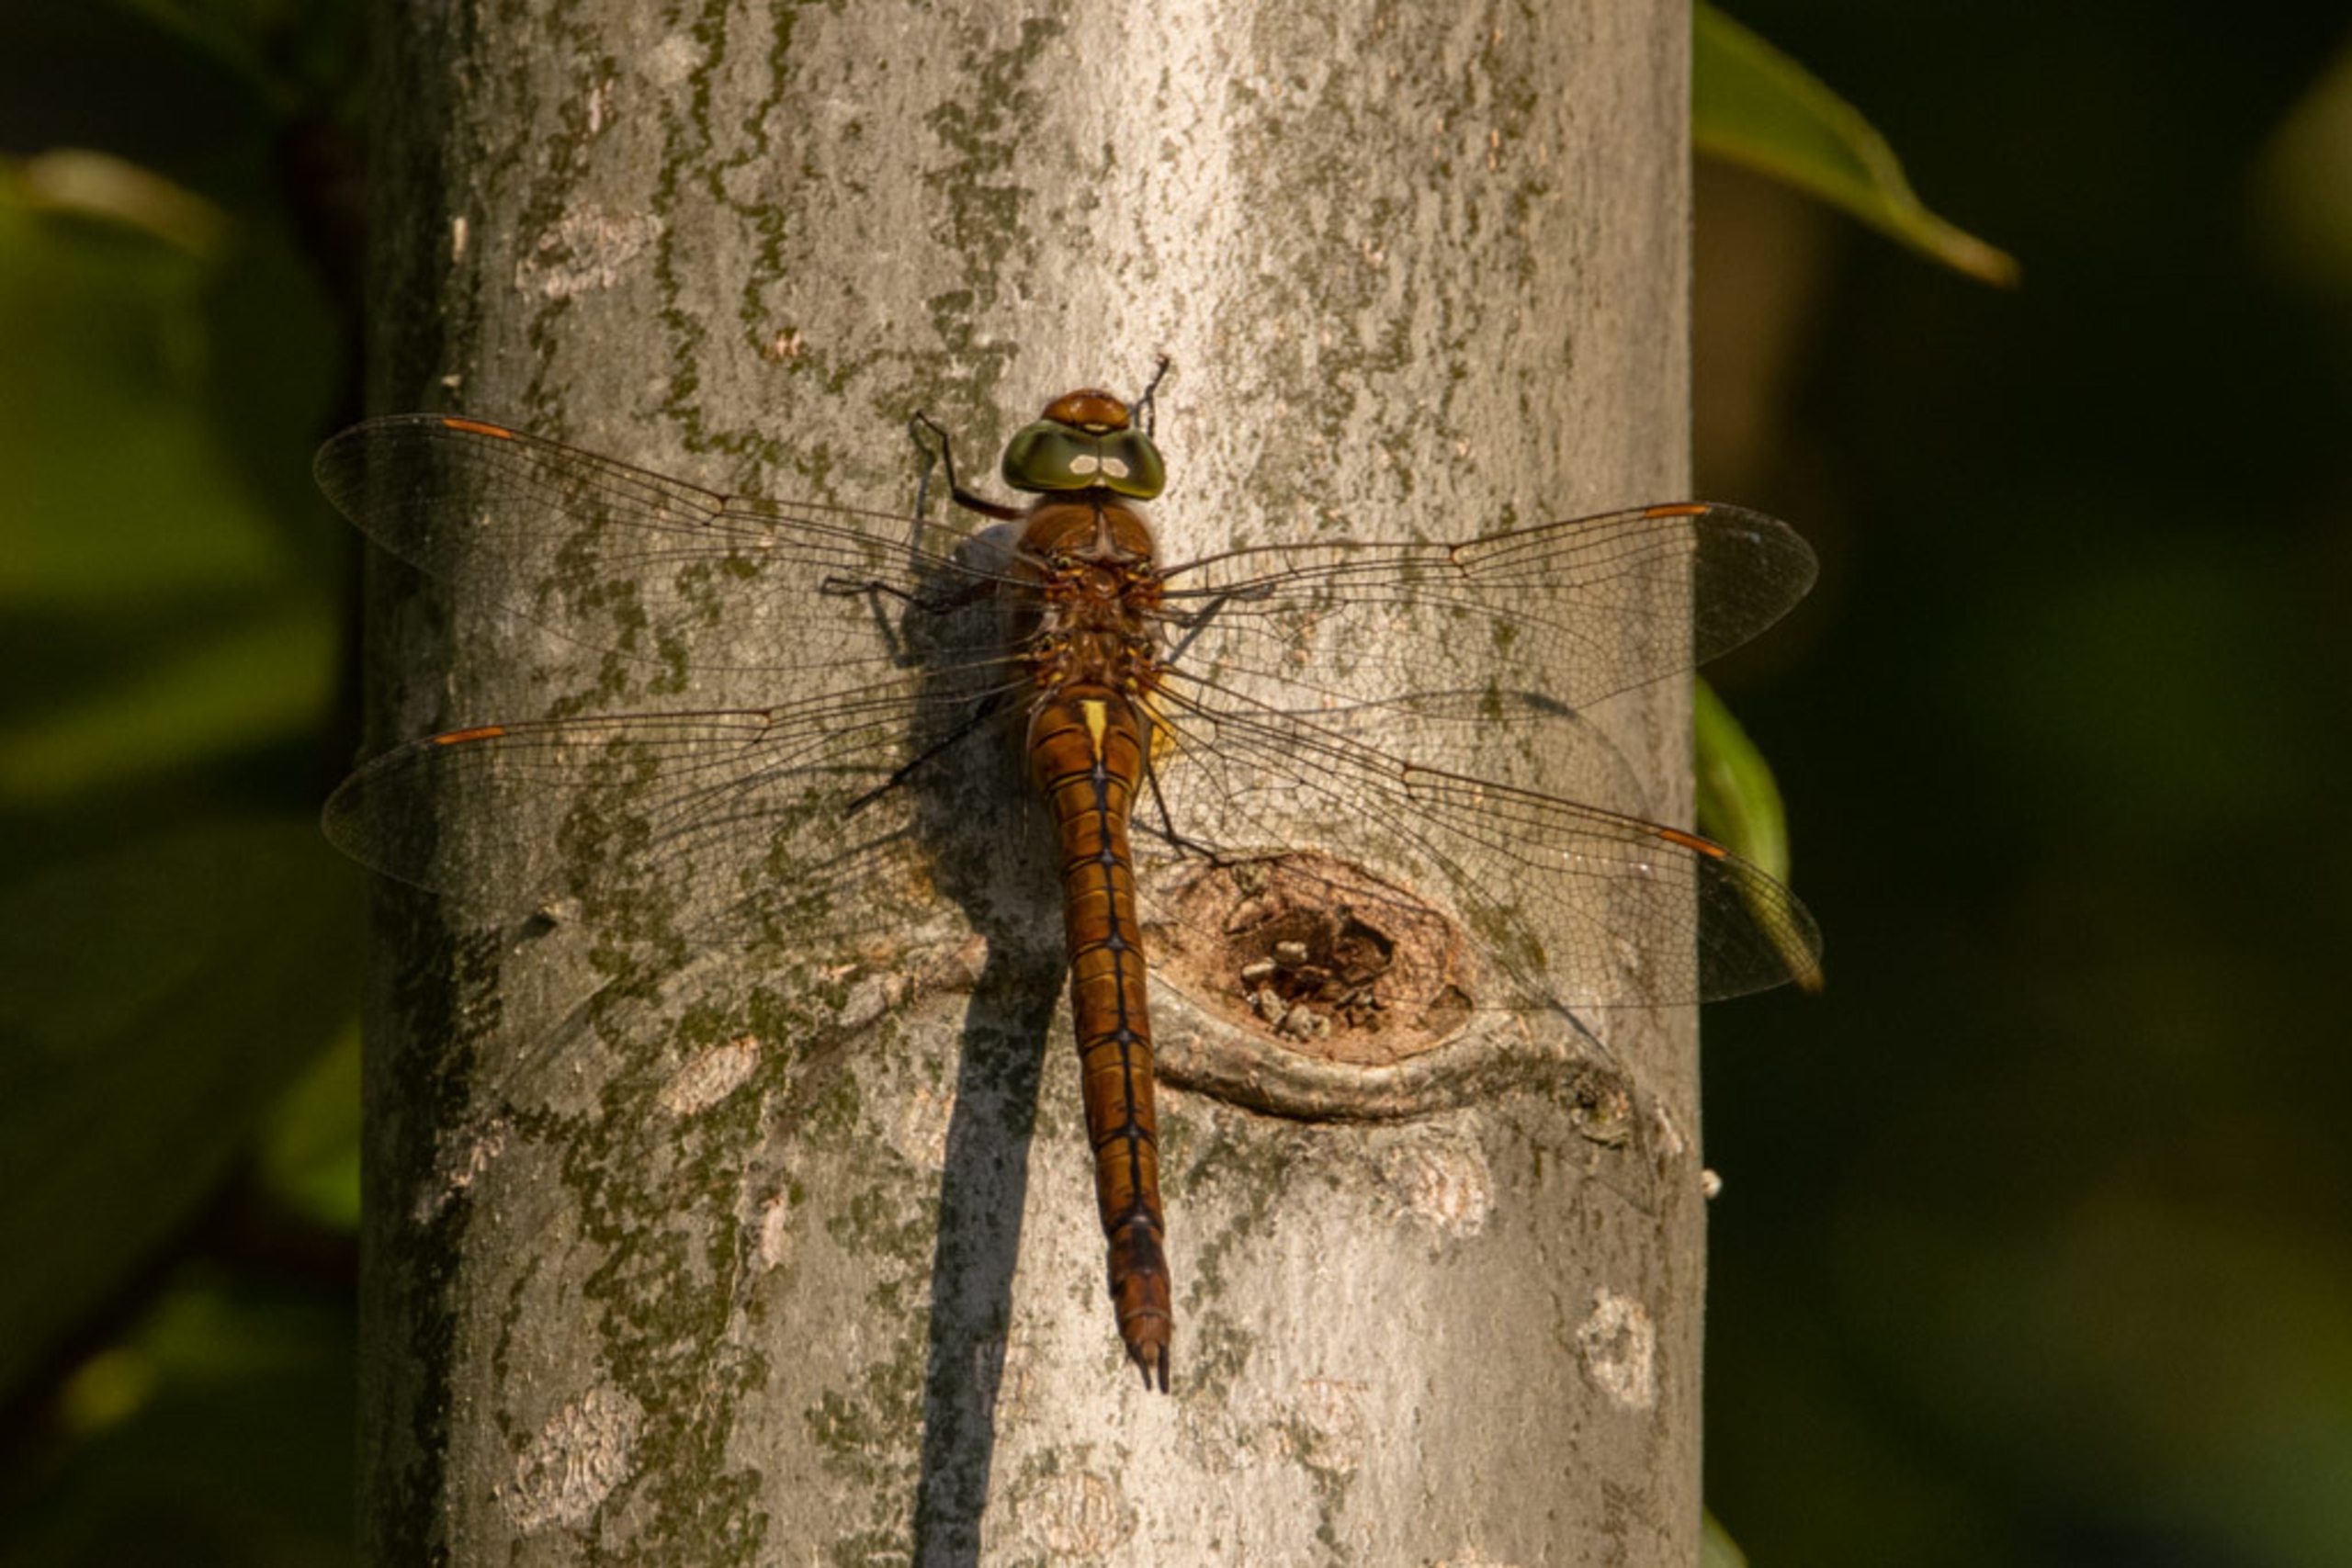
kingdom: Animalia
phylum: Arthropoda
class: Insecta
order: Odonata
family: Aeshnidae
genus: Aeshna
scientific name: Aeshna isoceles
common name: Kileplet-mosaikguldsmed
